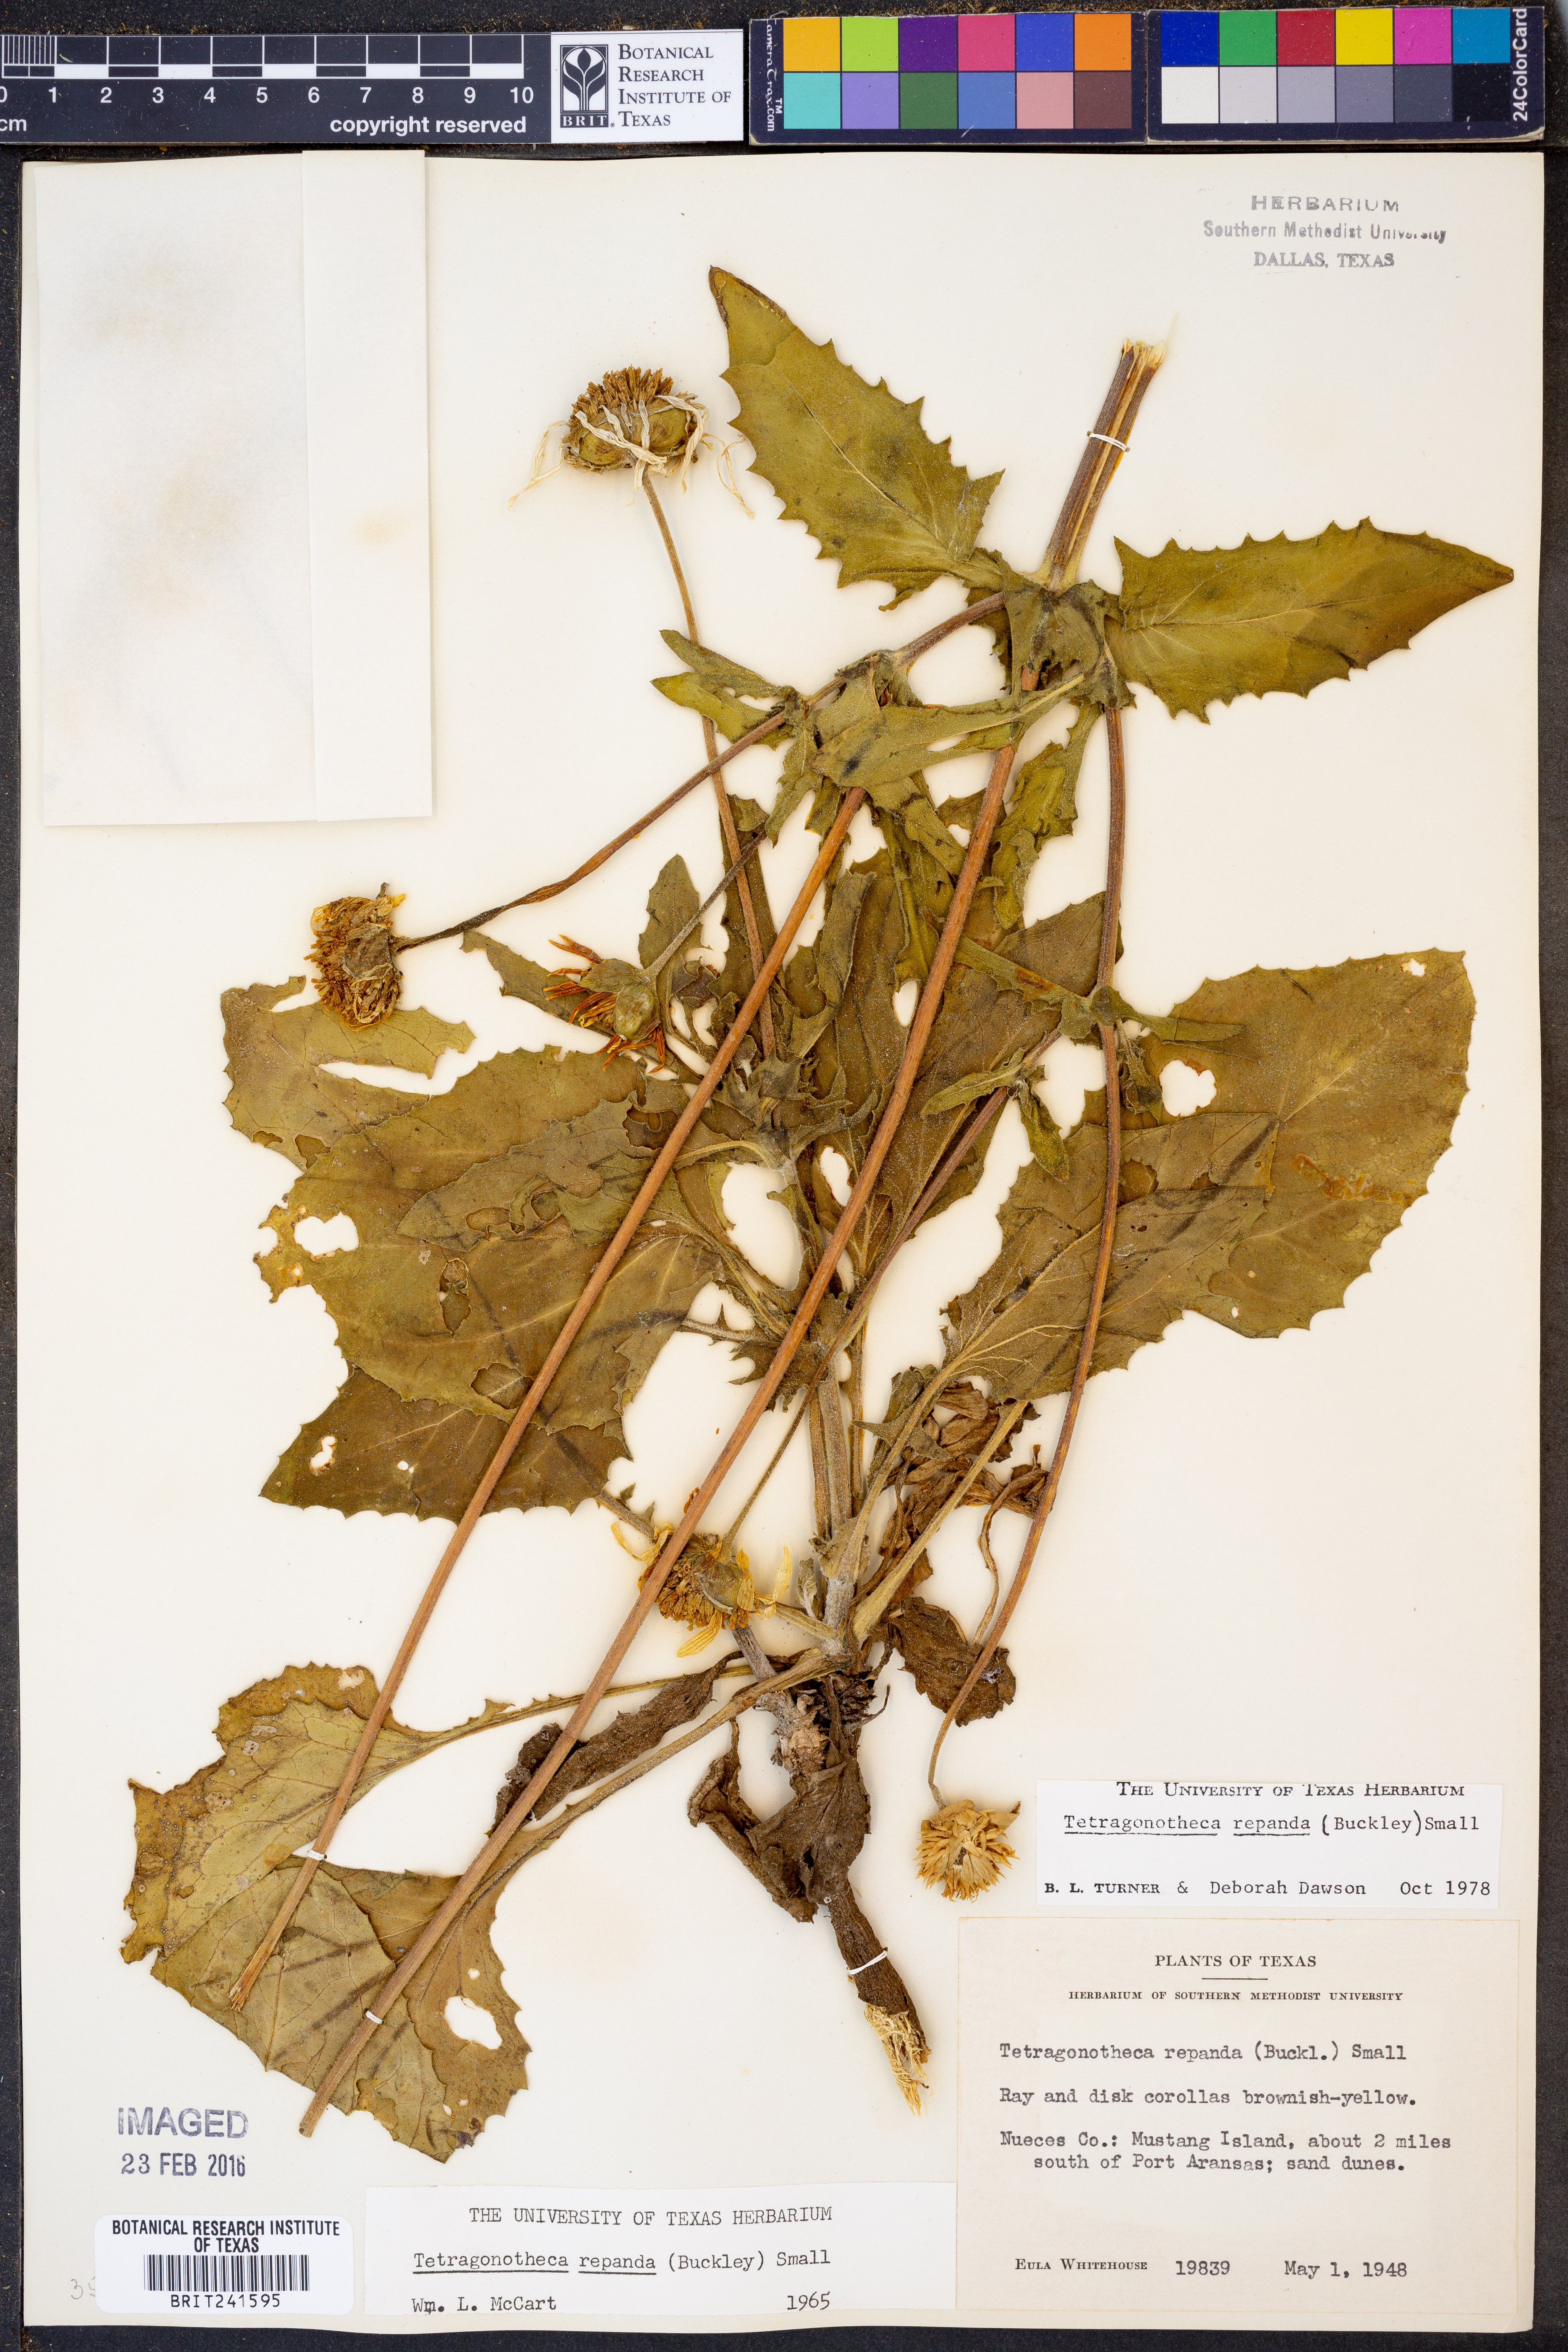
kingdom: Plantae
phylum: Tracheophyta
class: Magnoliopsida
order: Asterales
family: Asteraceae
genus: Tetragonotheca
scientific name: Tetragonotheca repanda
